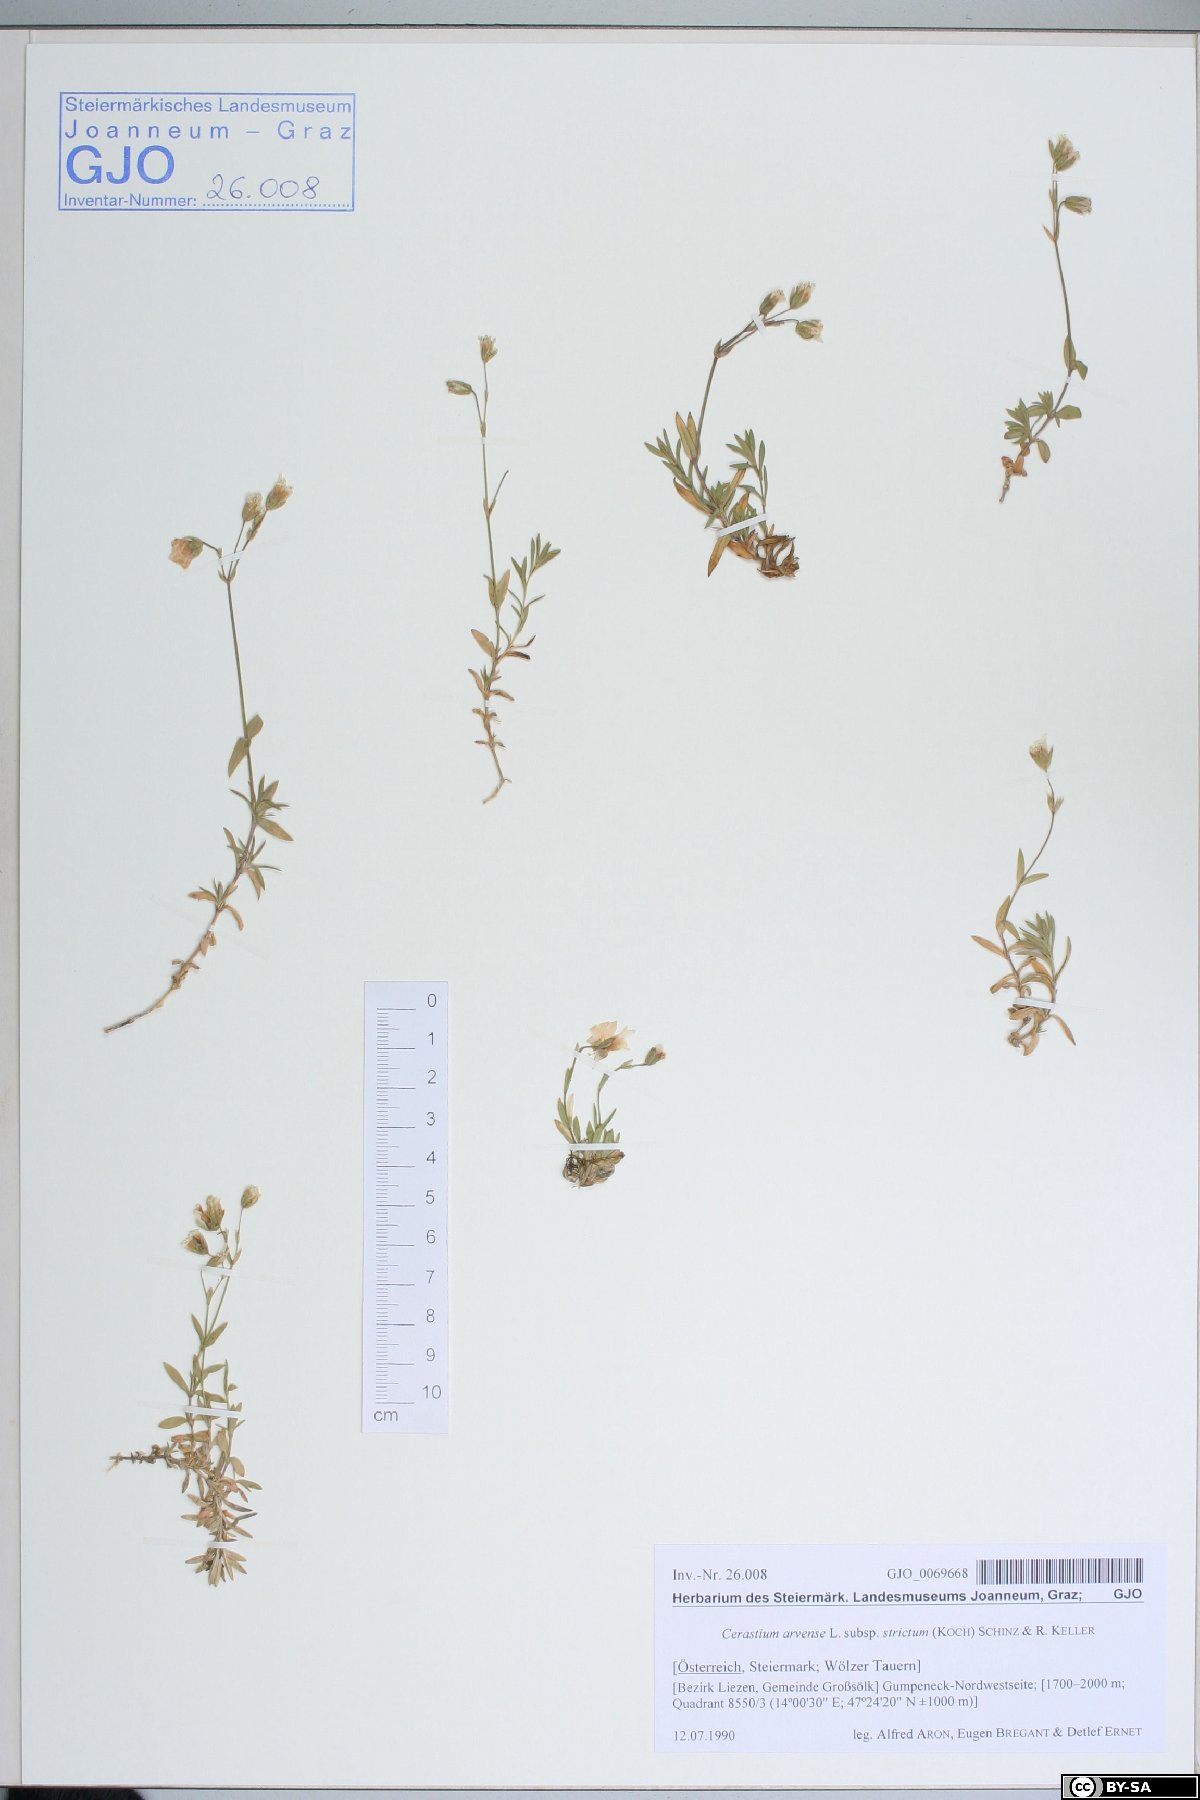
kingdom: Plantae
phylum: Tracheophyta
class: Magnoliopsida
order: Caryophyllales
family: Caryophyllaceae
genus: Cerastium
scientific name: Cerastium elongatum
